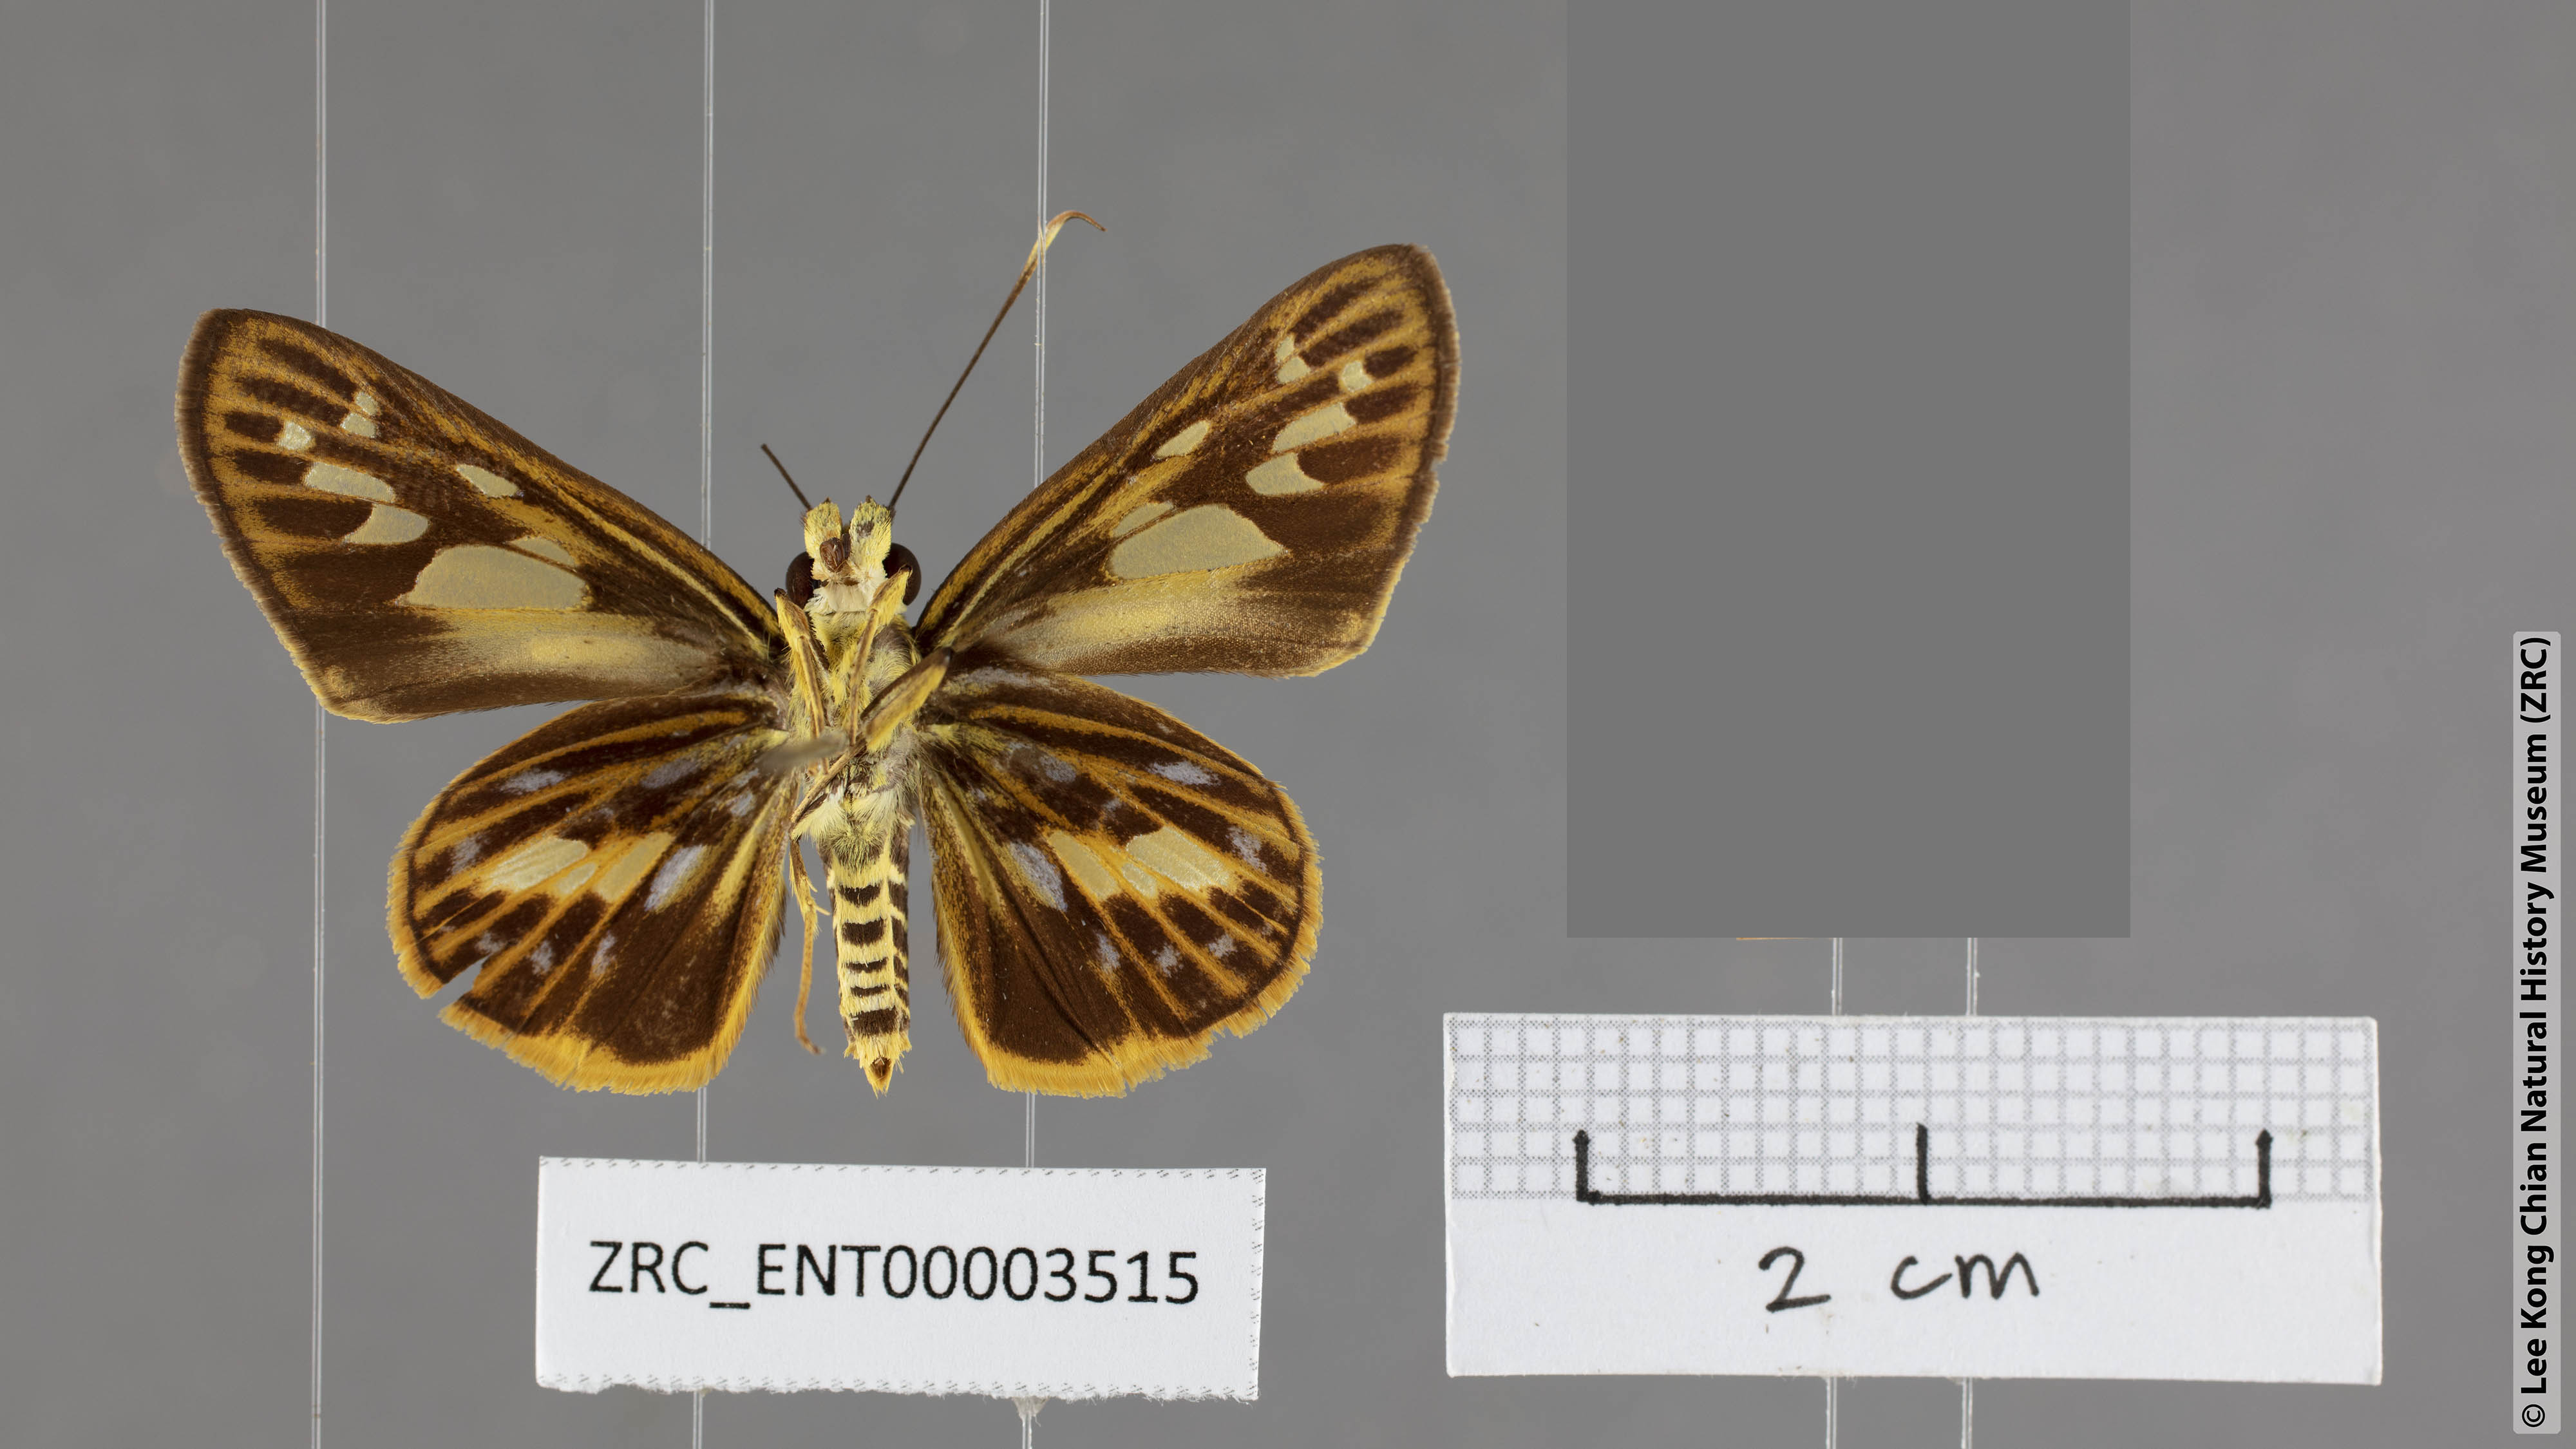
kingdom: Animalia
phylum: Arthropoda
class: Insecta
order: Lepidoptera
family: Hesperiidae
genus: Pyroneura
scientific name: Pyroneura niasana
